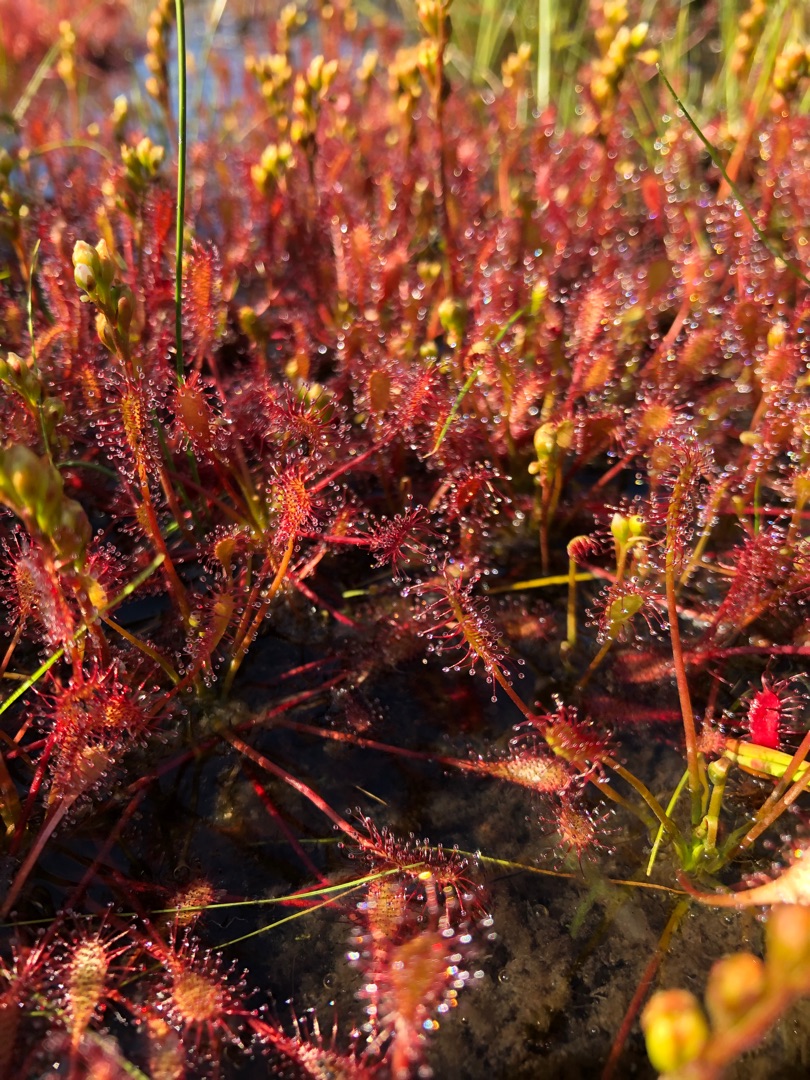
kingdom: Plantae
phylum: Tracheophyta
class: Magnoliopsida
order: Caryophyllales
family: Droseraceae
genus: Drosera
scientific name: Drosera intermedia
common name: Liden soldug
